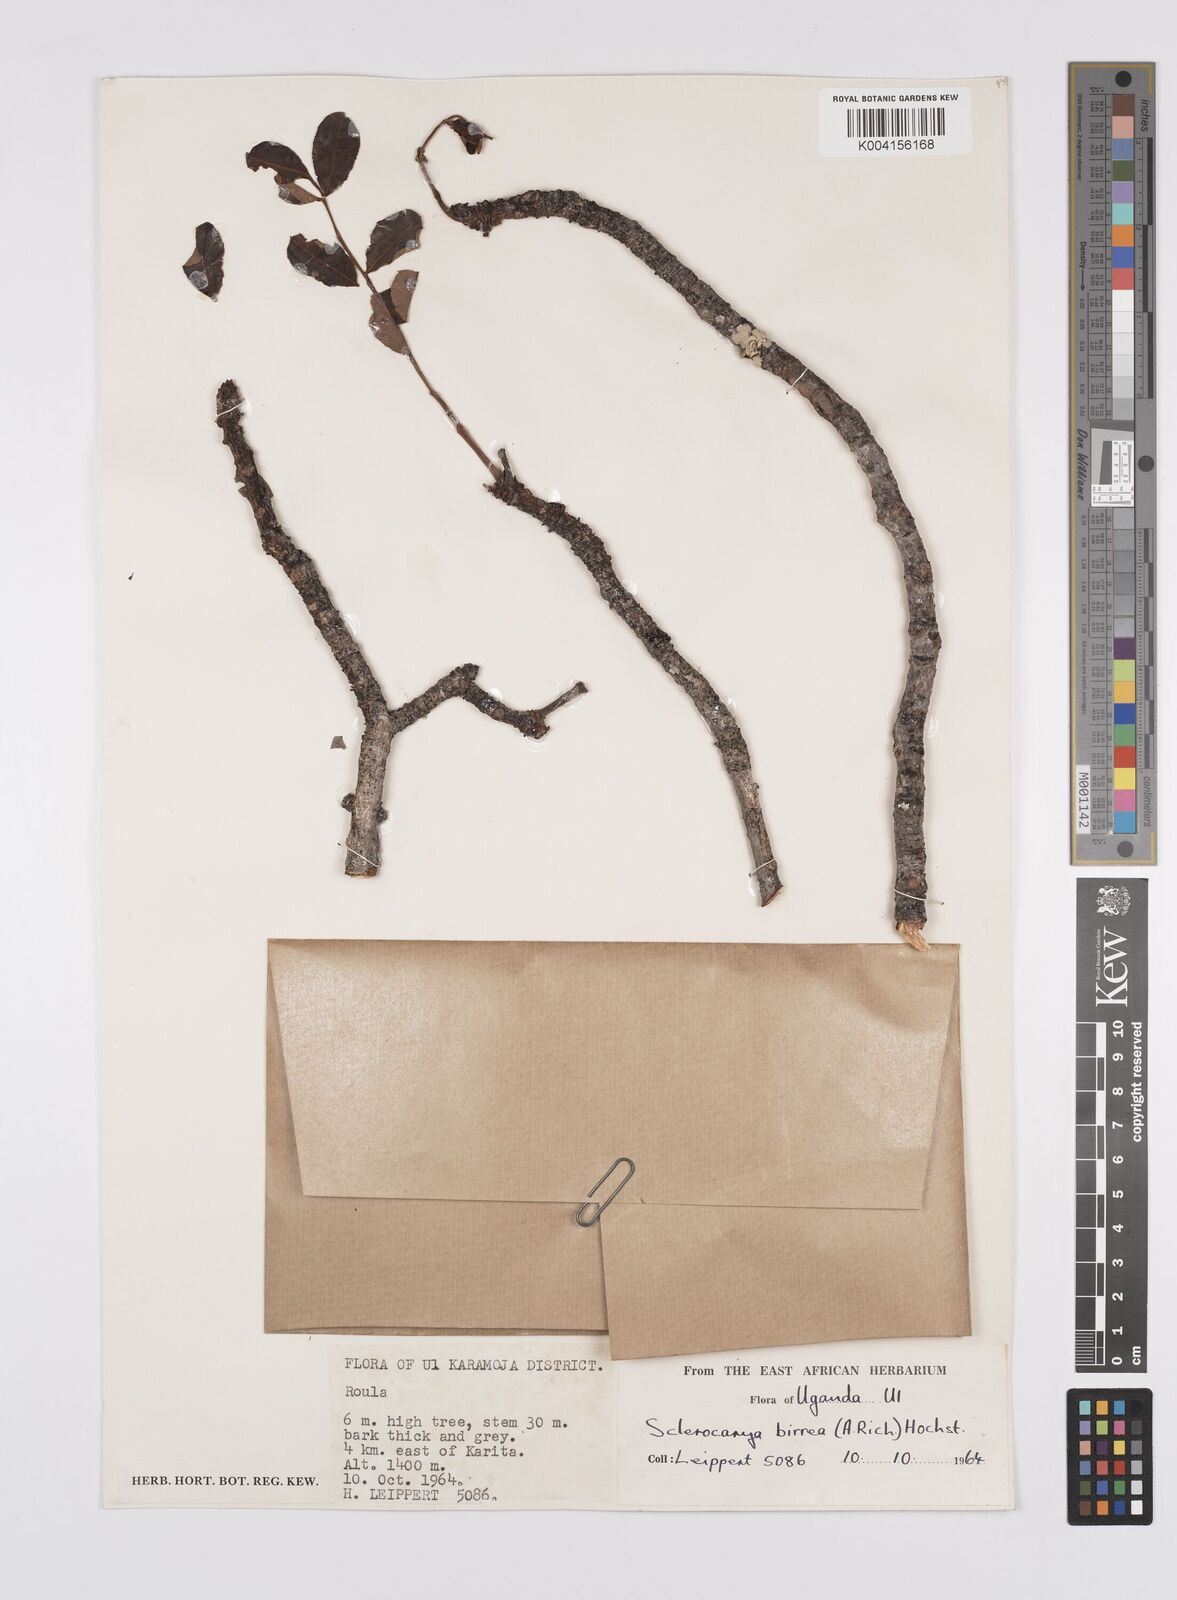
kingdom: Plantae
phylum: Tracheophyta
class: Magnoliopsida
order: Sapindales
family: Anacardiaceae
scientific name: Anacardiaceae
